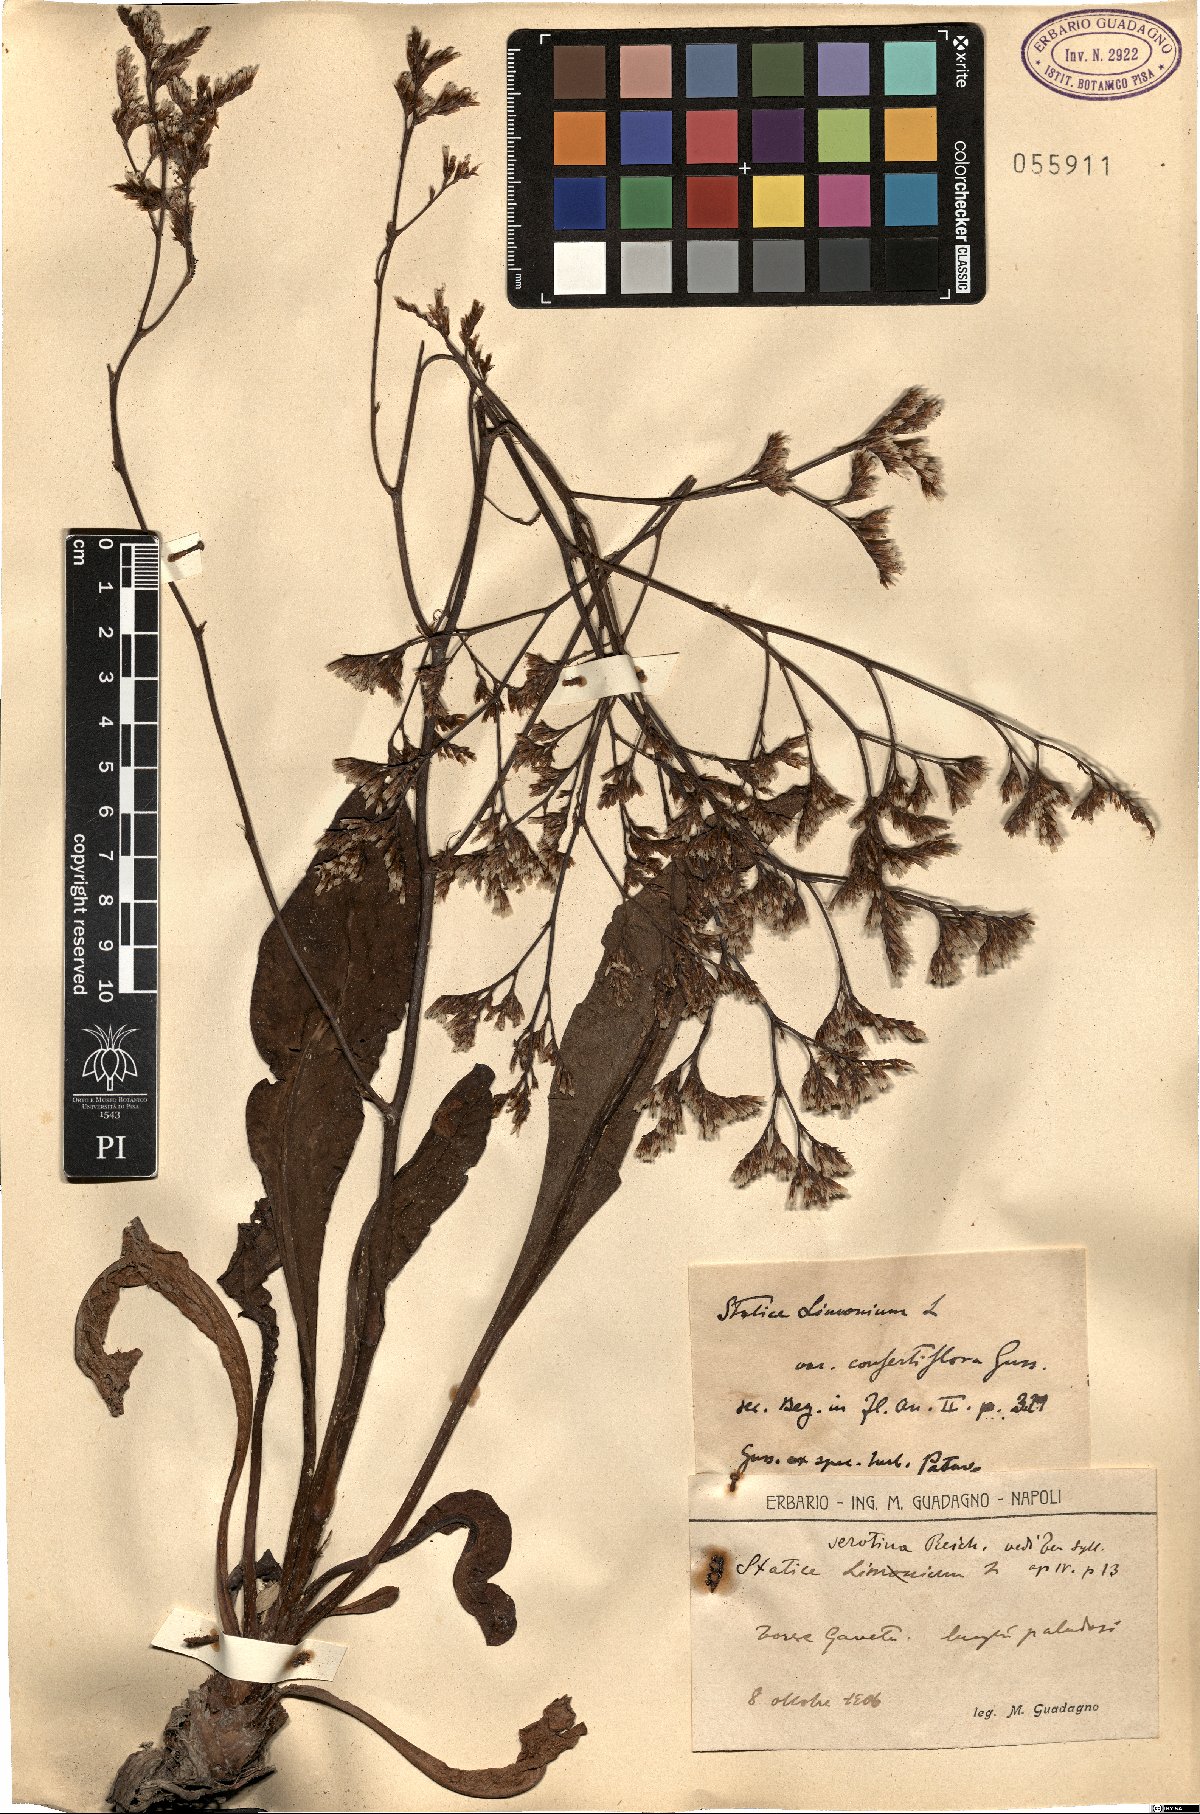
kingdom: Plantae
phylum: Tracheophyta
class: Magnoliopsida
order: Caryophyllales
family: Plumbaginaceae
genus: Limonium
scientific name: Limonium narbonense
